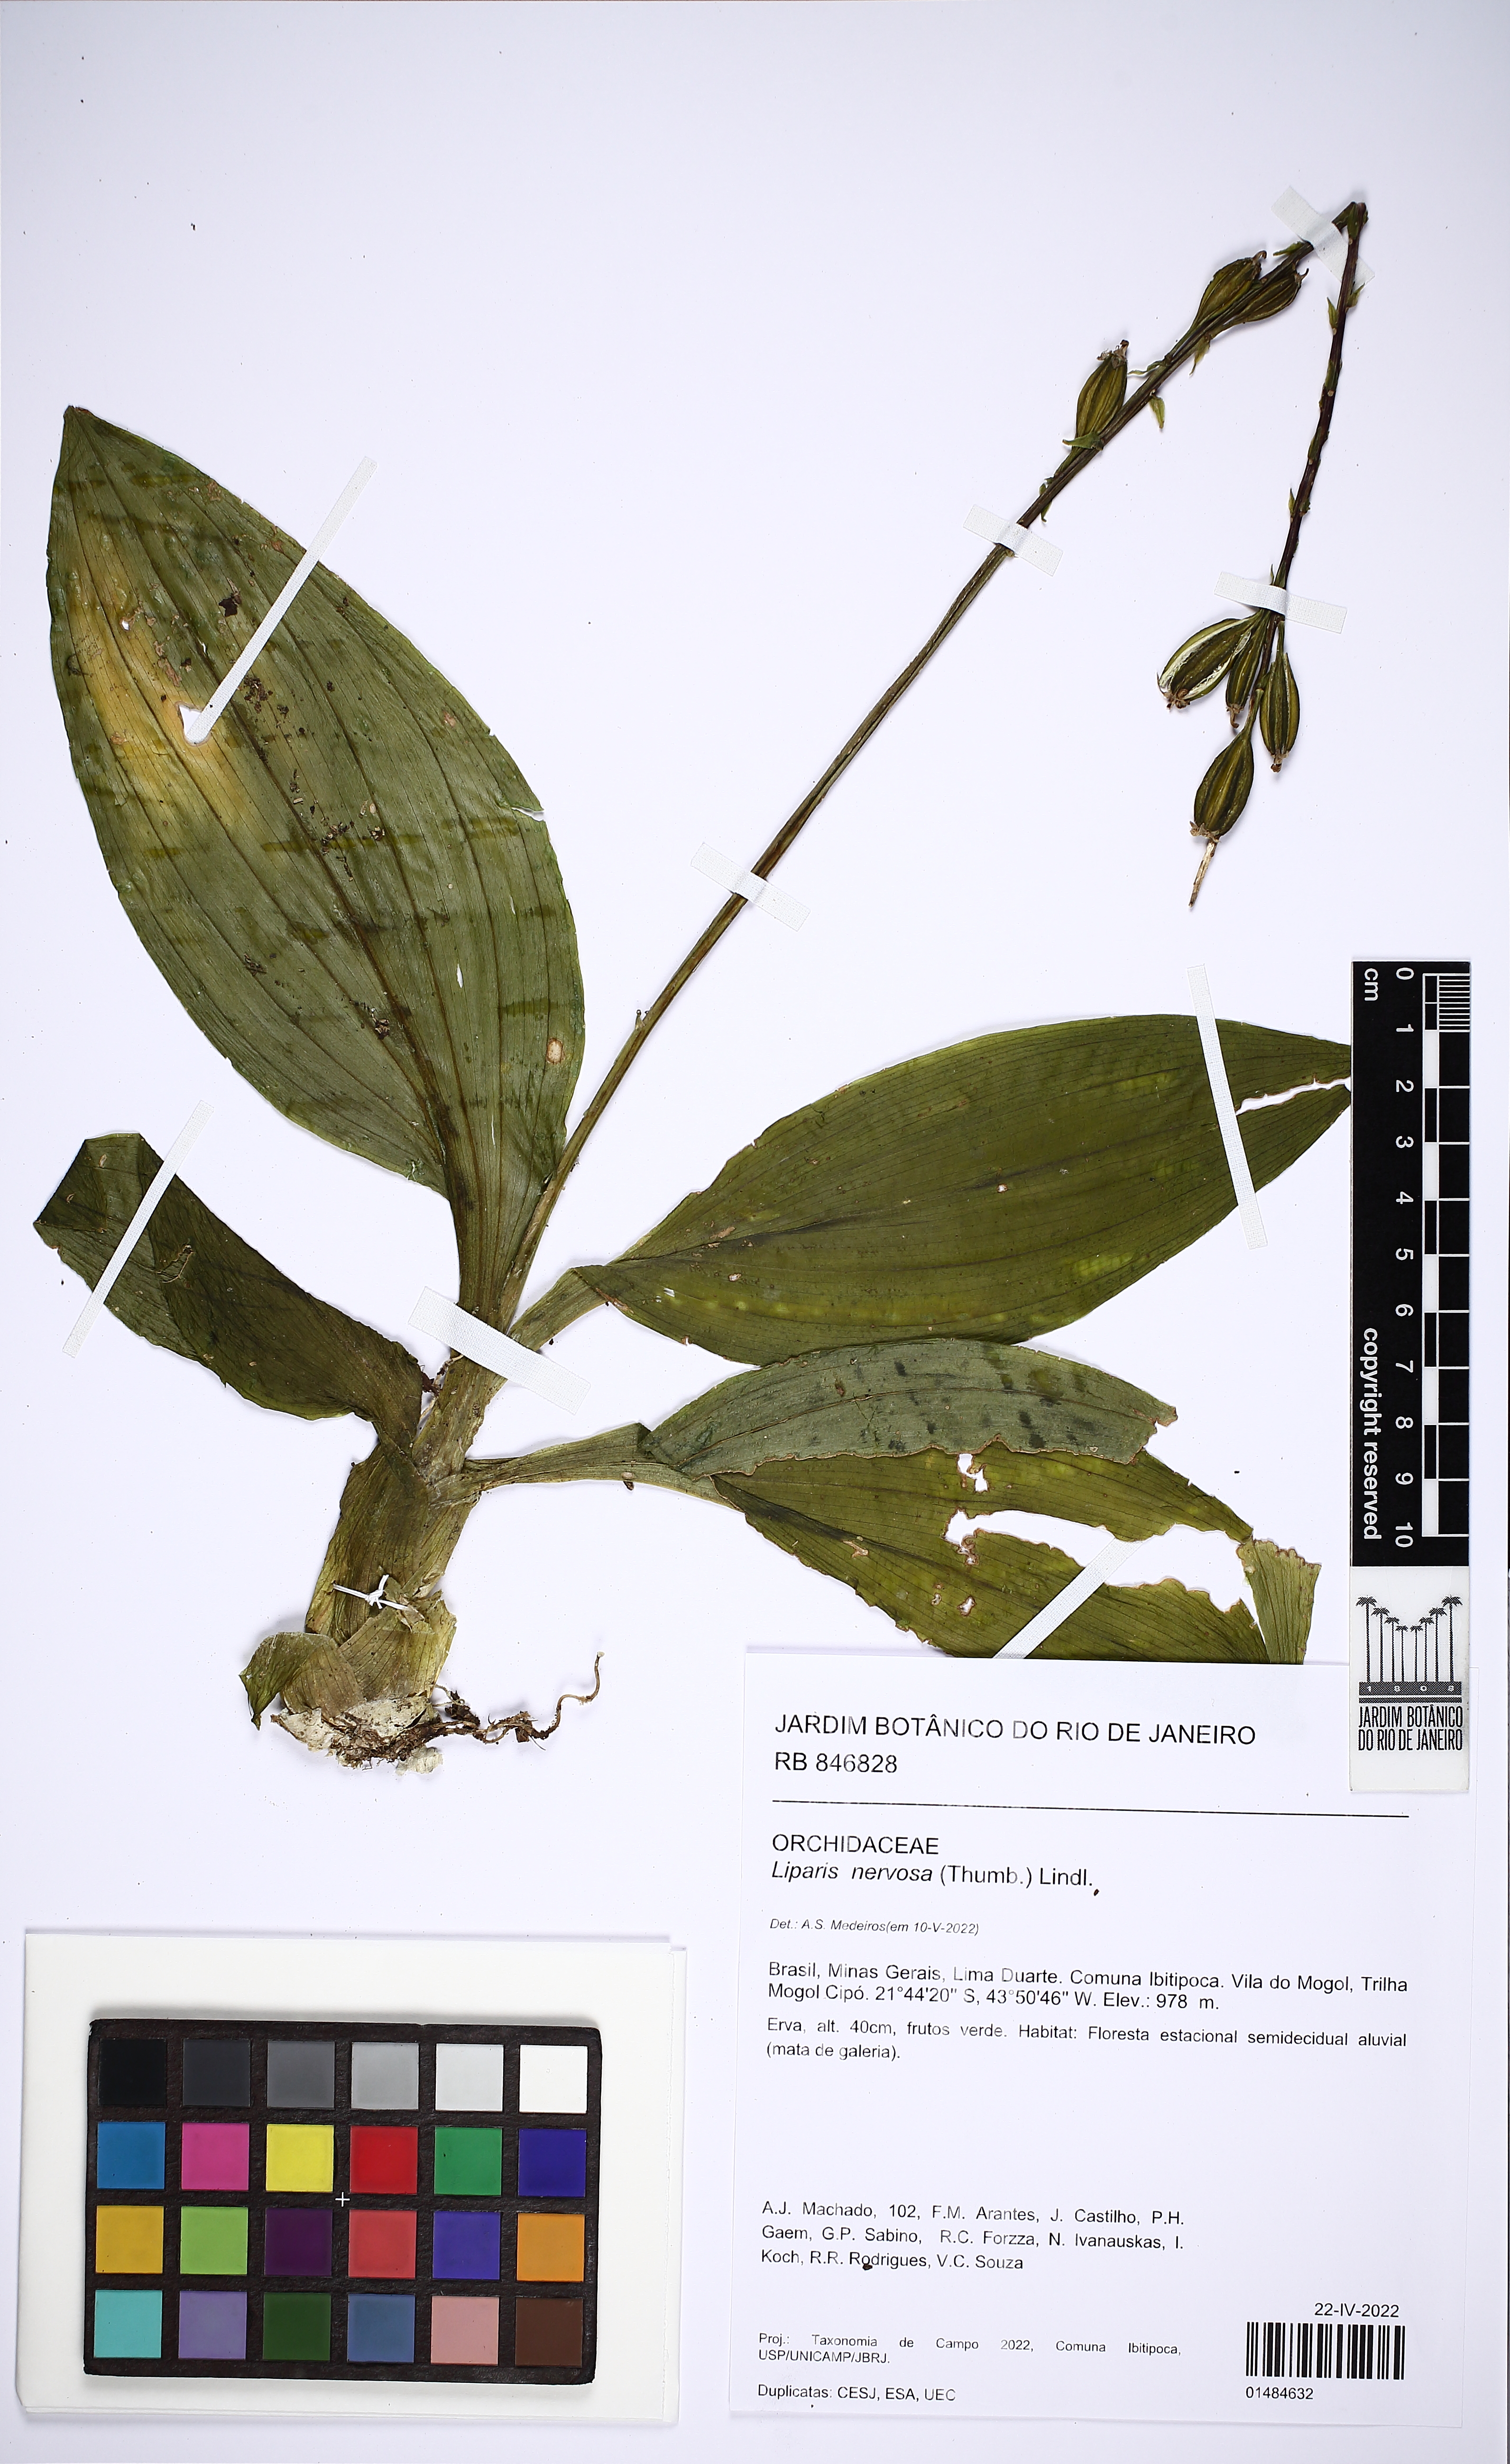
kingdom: Plantae
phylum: Tracheophyta
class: Liliopsida
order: Asparagales
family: Orchidaceae
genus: Liparis
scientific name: Liparis nervosa
